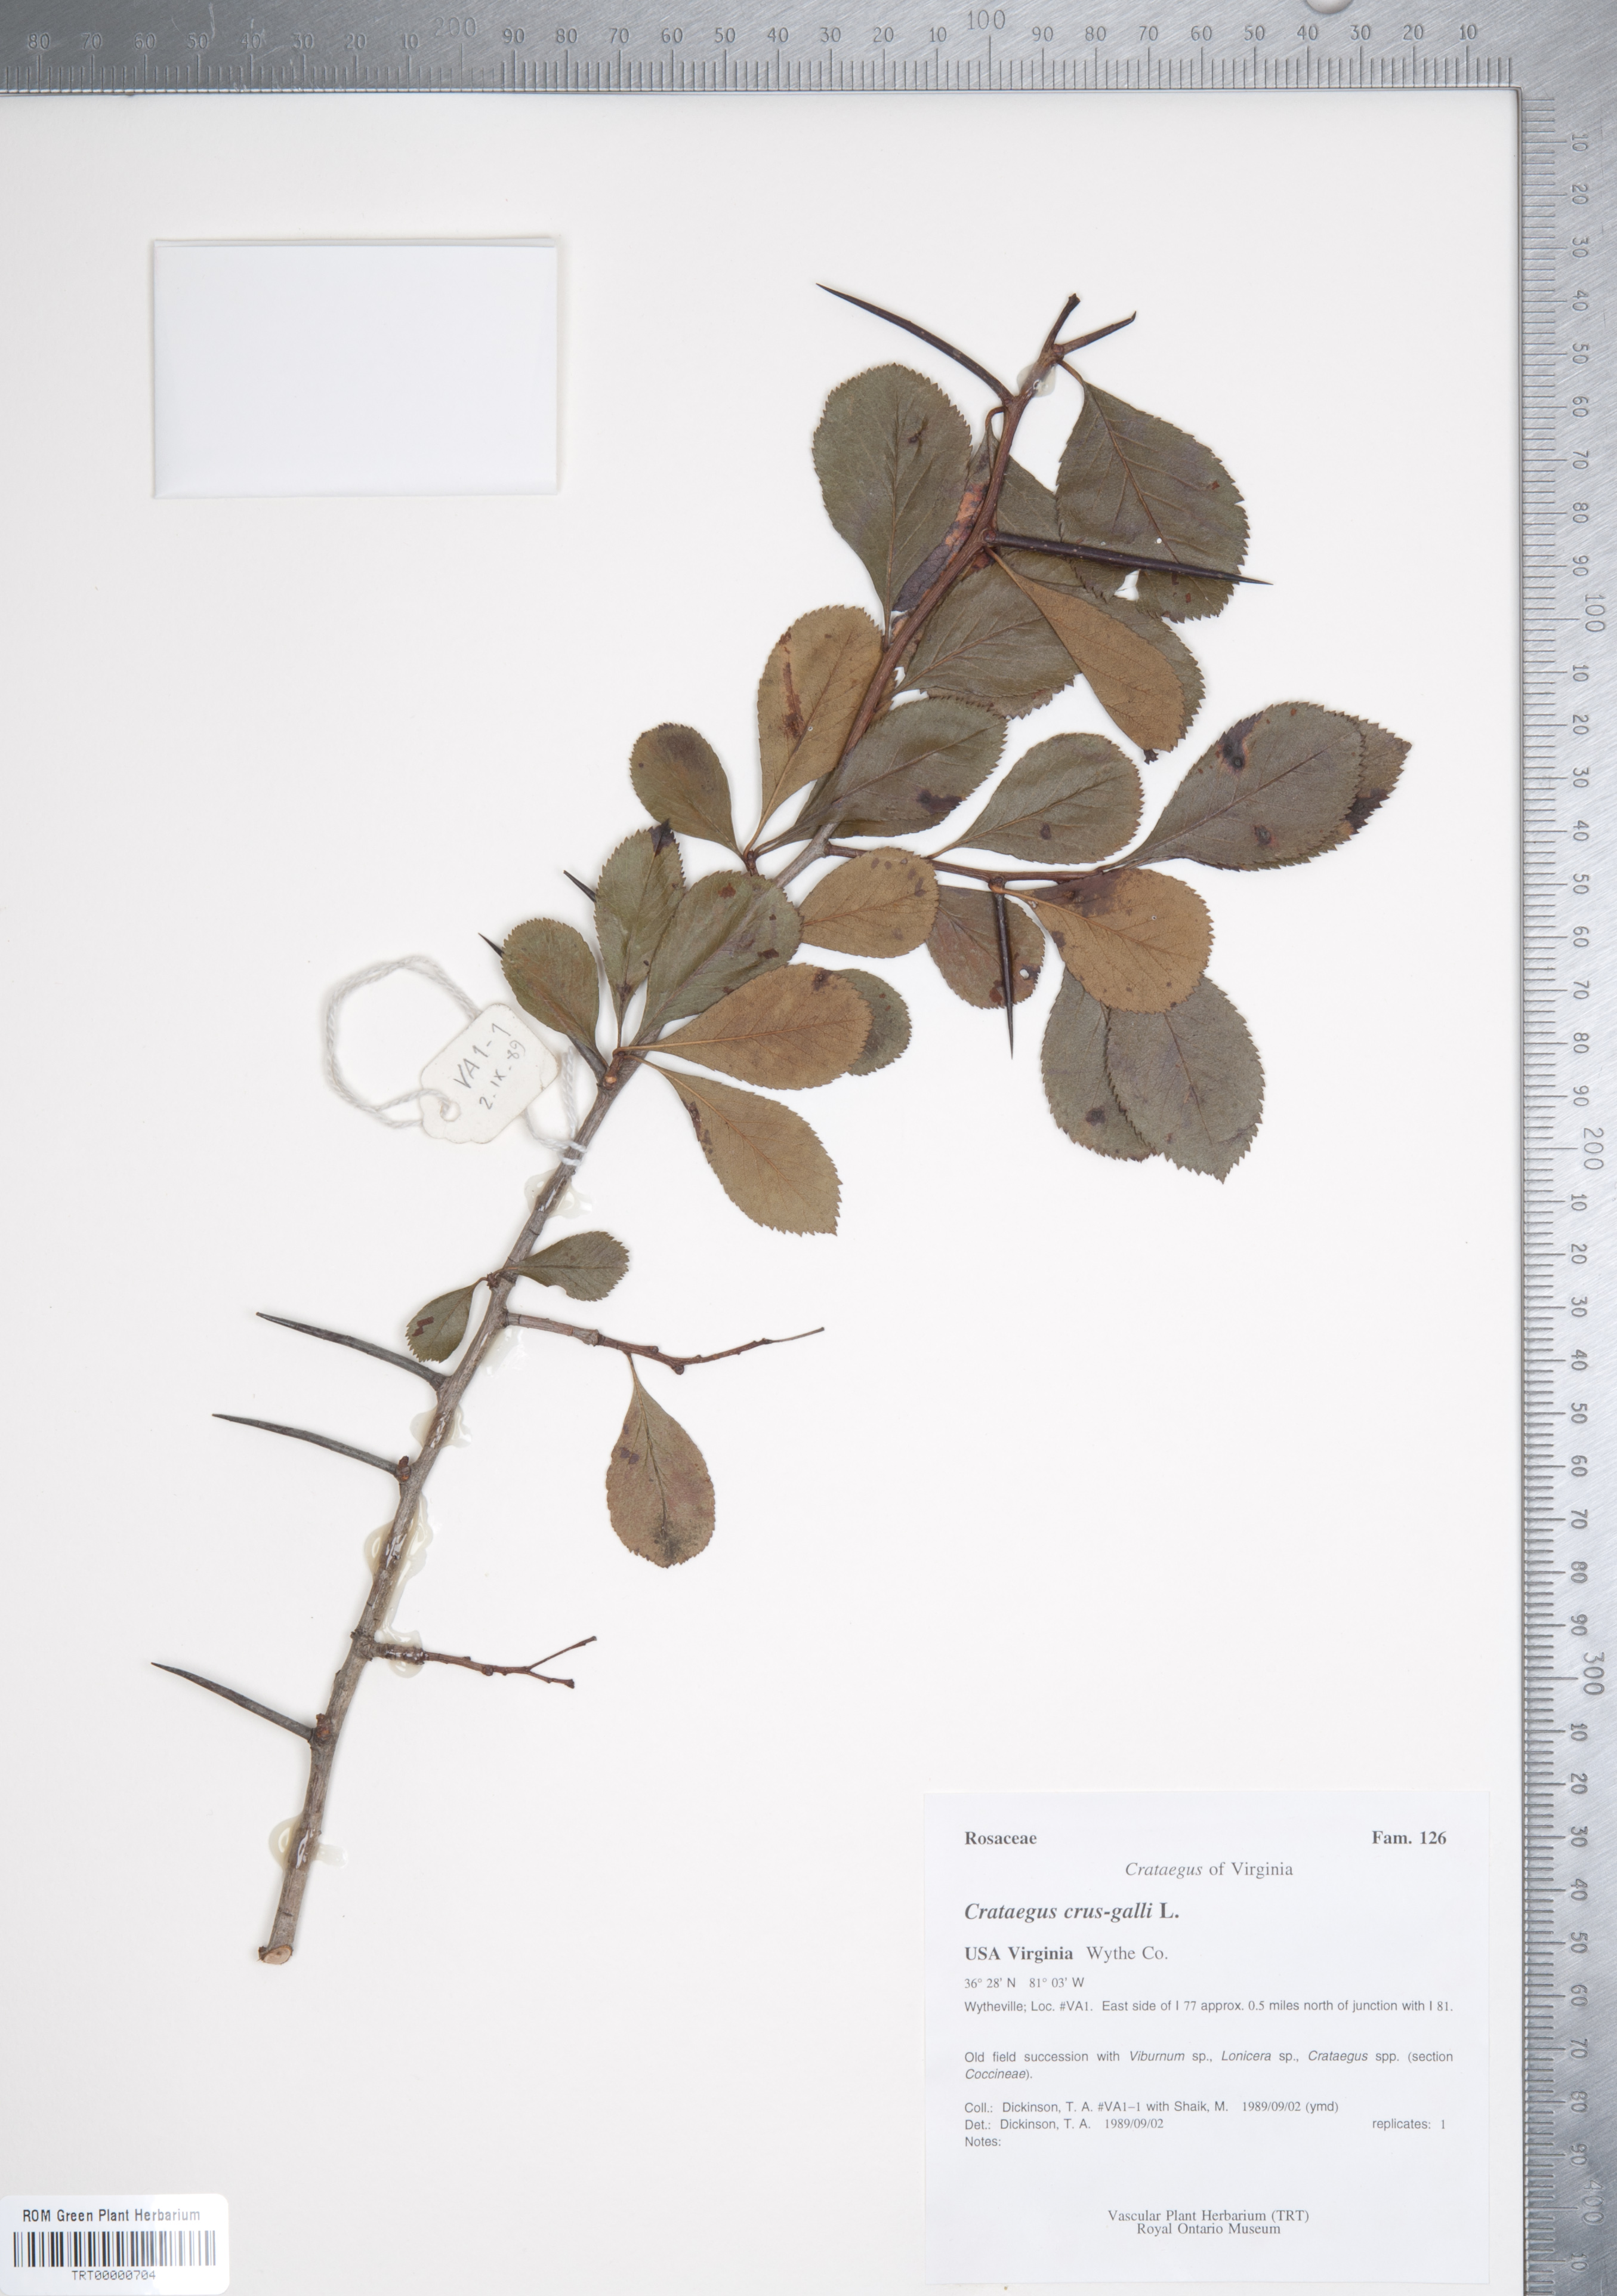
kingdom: Plantae
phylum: Tracheophyta
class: Magnoliopsida
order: Rosales
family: Rosaceae
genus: Crataegus
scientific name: Crataegus crus-galli
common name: Cockspurthorn
